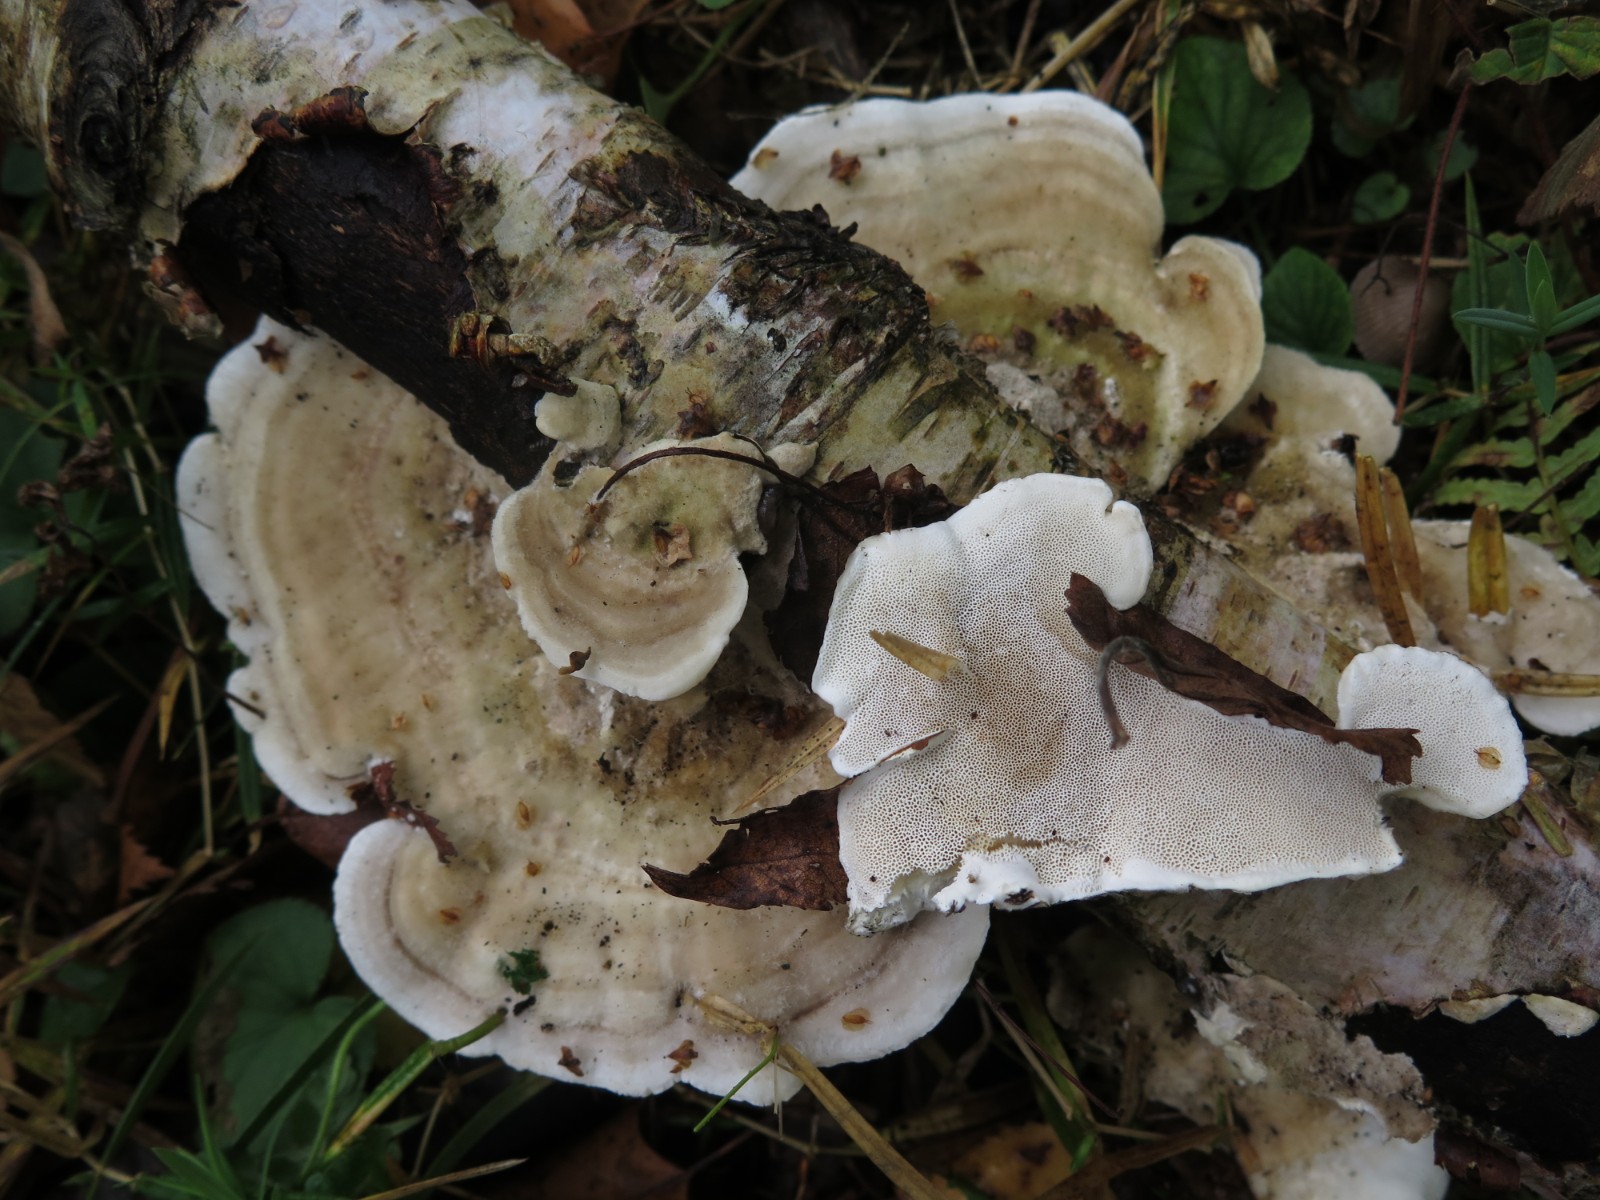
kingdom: Fungi
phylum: Basidiomycota
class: Agaricomycetes
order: Polyporales
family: Polyporaceae
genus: Trametes
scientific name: Trametes hirsuta
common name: håret læderporesvamp
